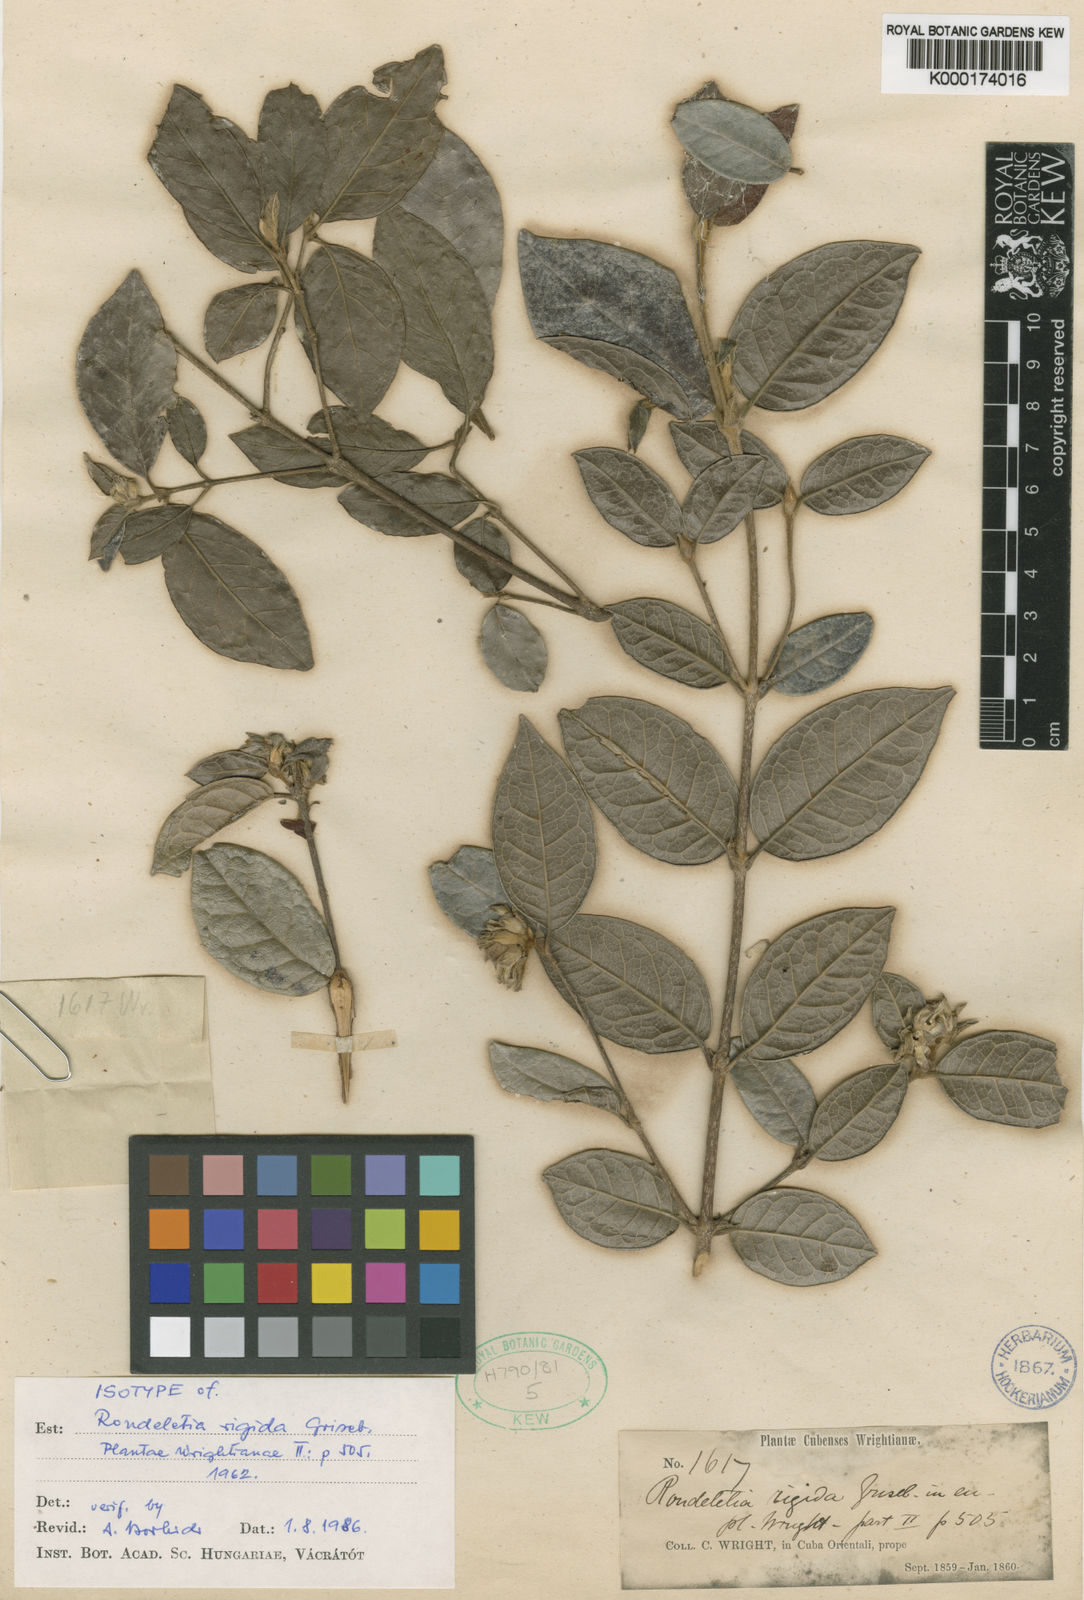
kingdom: Plantae
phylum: Tracheophyta
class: Magnoliopsida
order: Gentianales
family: Rubiaceae
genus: Rondeletia
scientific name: Rondeletia rigida
